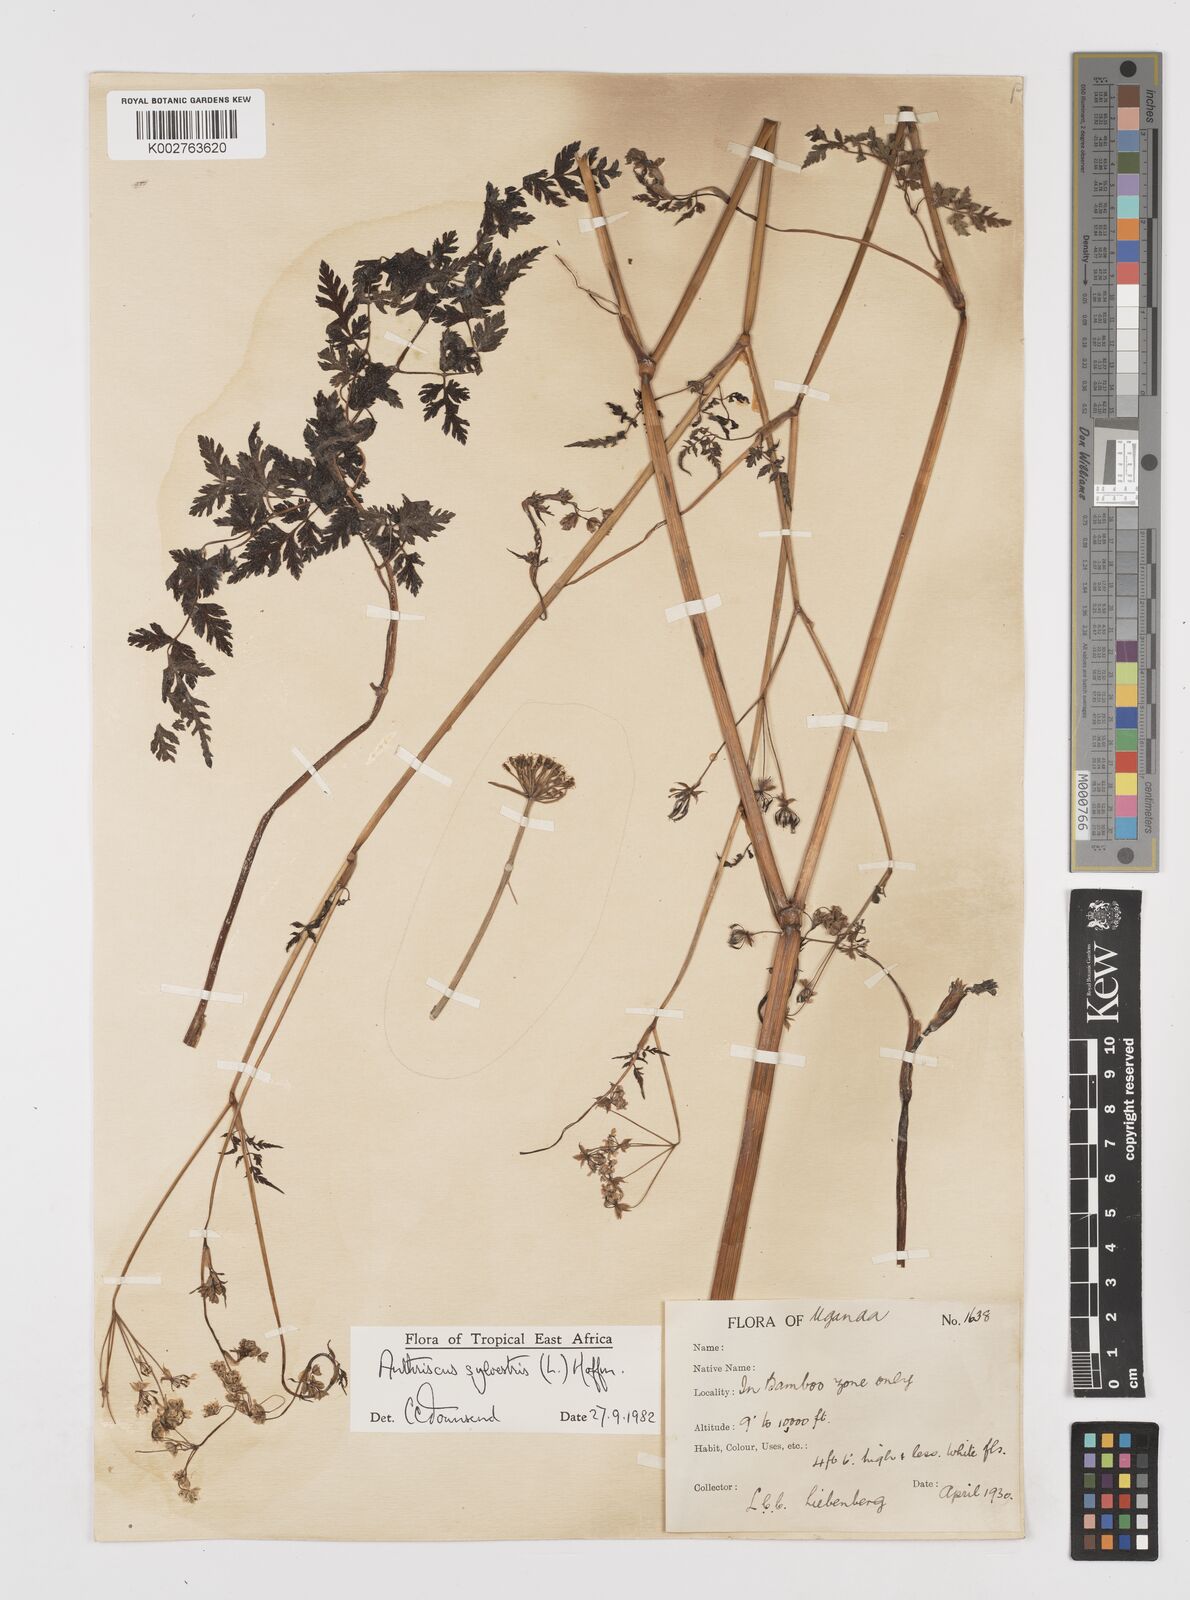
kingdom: Plantae
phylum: Tracheophyta
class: Magnoliopsida
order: Apiales
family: Apiaceae
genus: Anthriscus
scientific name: Anthriscus sylvestris
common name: Cow parsley
